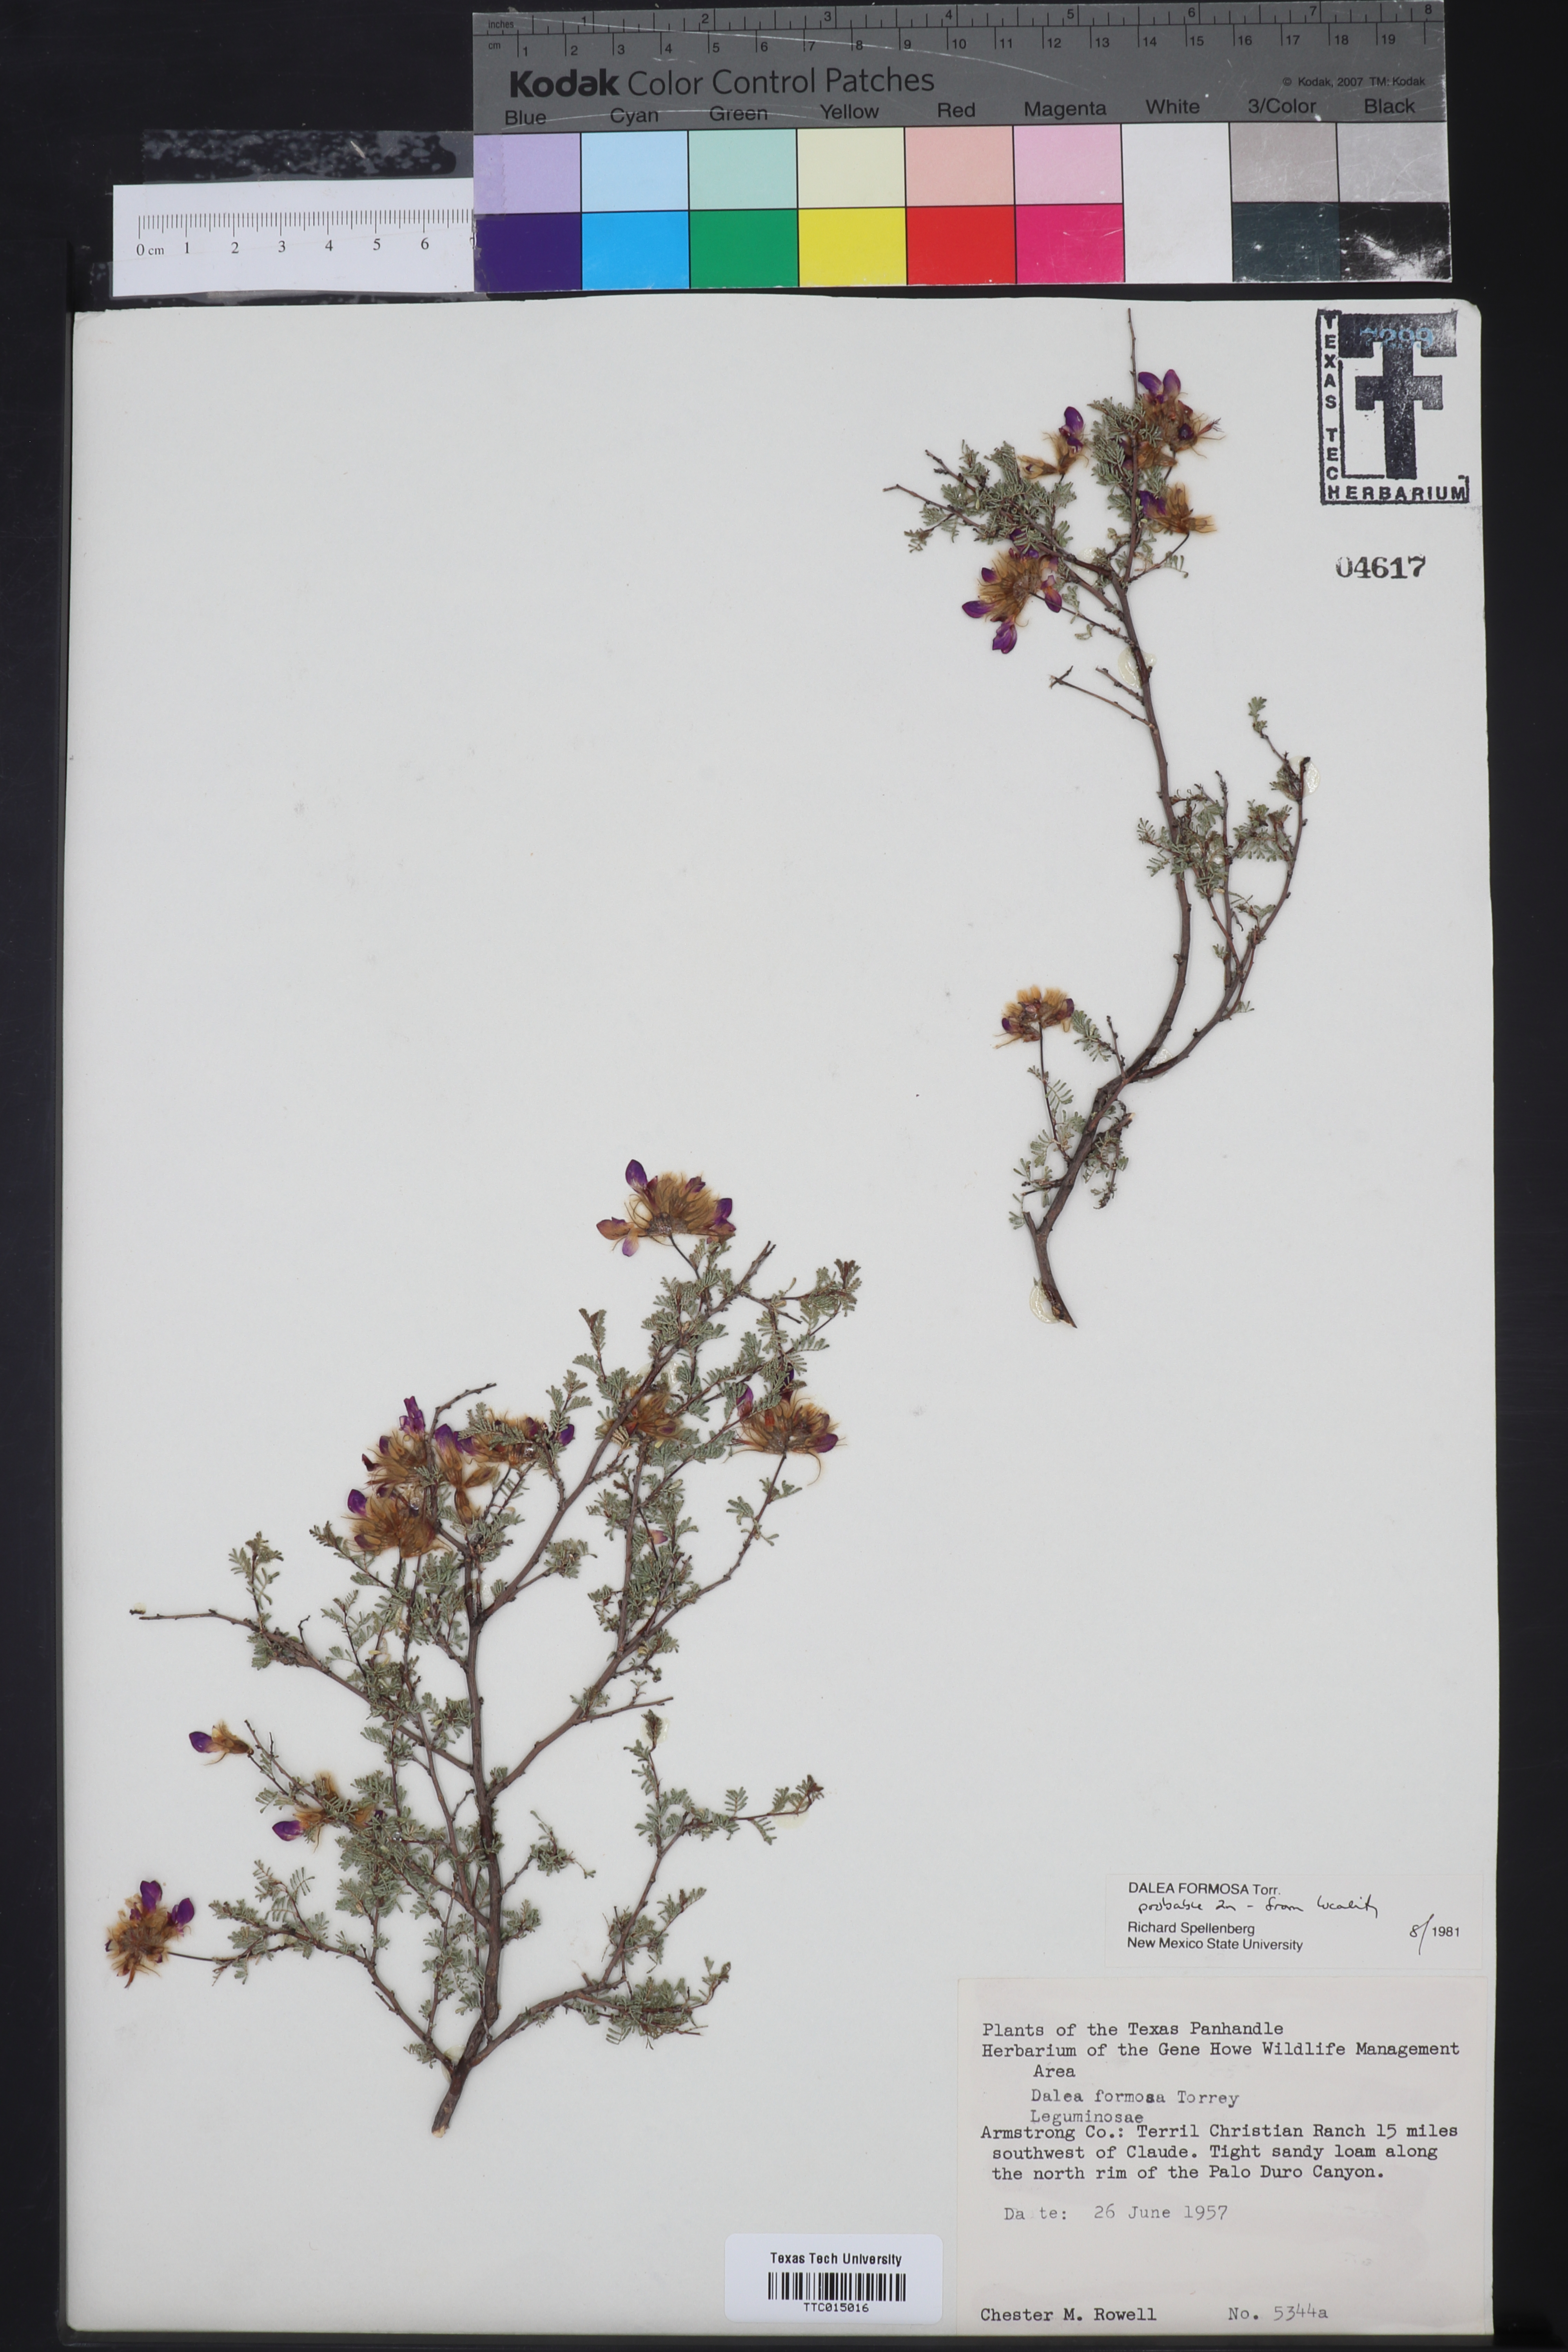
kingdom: Plantae
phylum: Tracheophyta
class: Magnoliopsida
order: Fabales
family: Fabaceae
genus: Dalea
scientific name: Dalea formosa
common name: Feather-plume dalea
